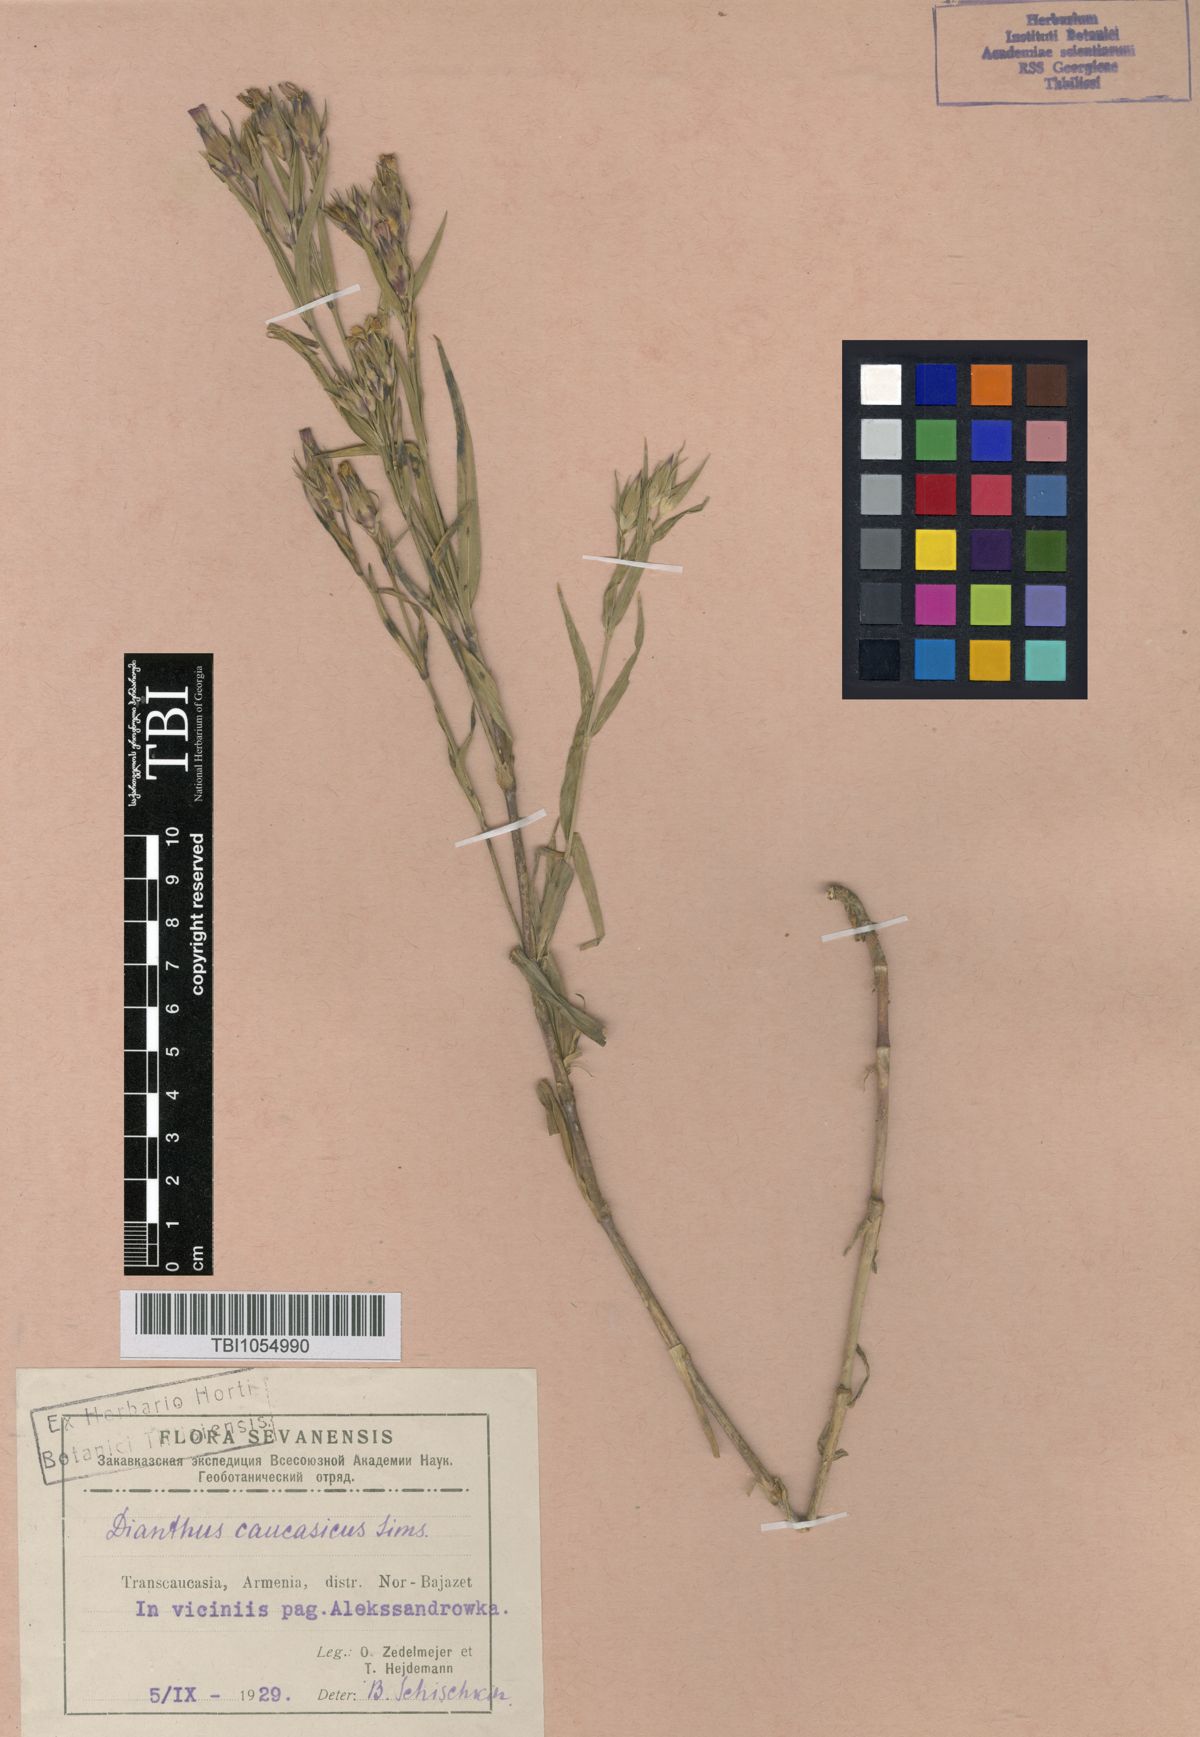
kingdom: Plantae
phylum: Tracheophyta
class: Magnoliopsida
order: Caryophyllales
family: Caryophyllaceae
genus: Dianthus
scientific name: Dianthus caucaseus
